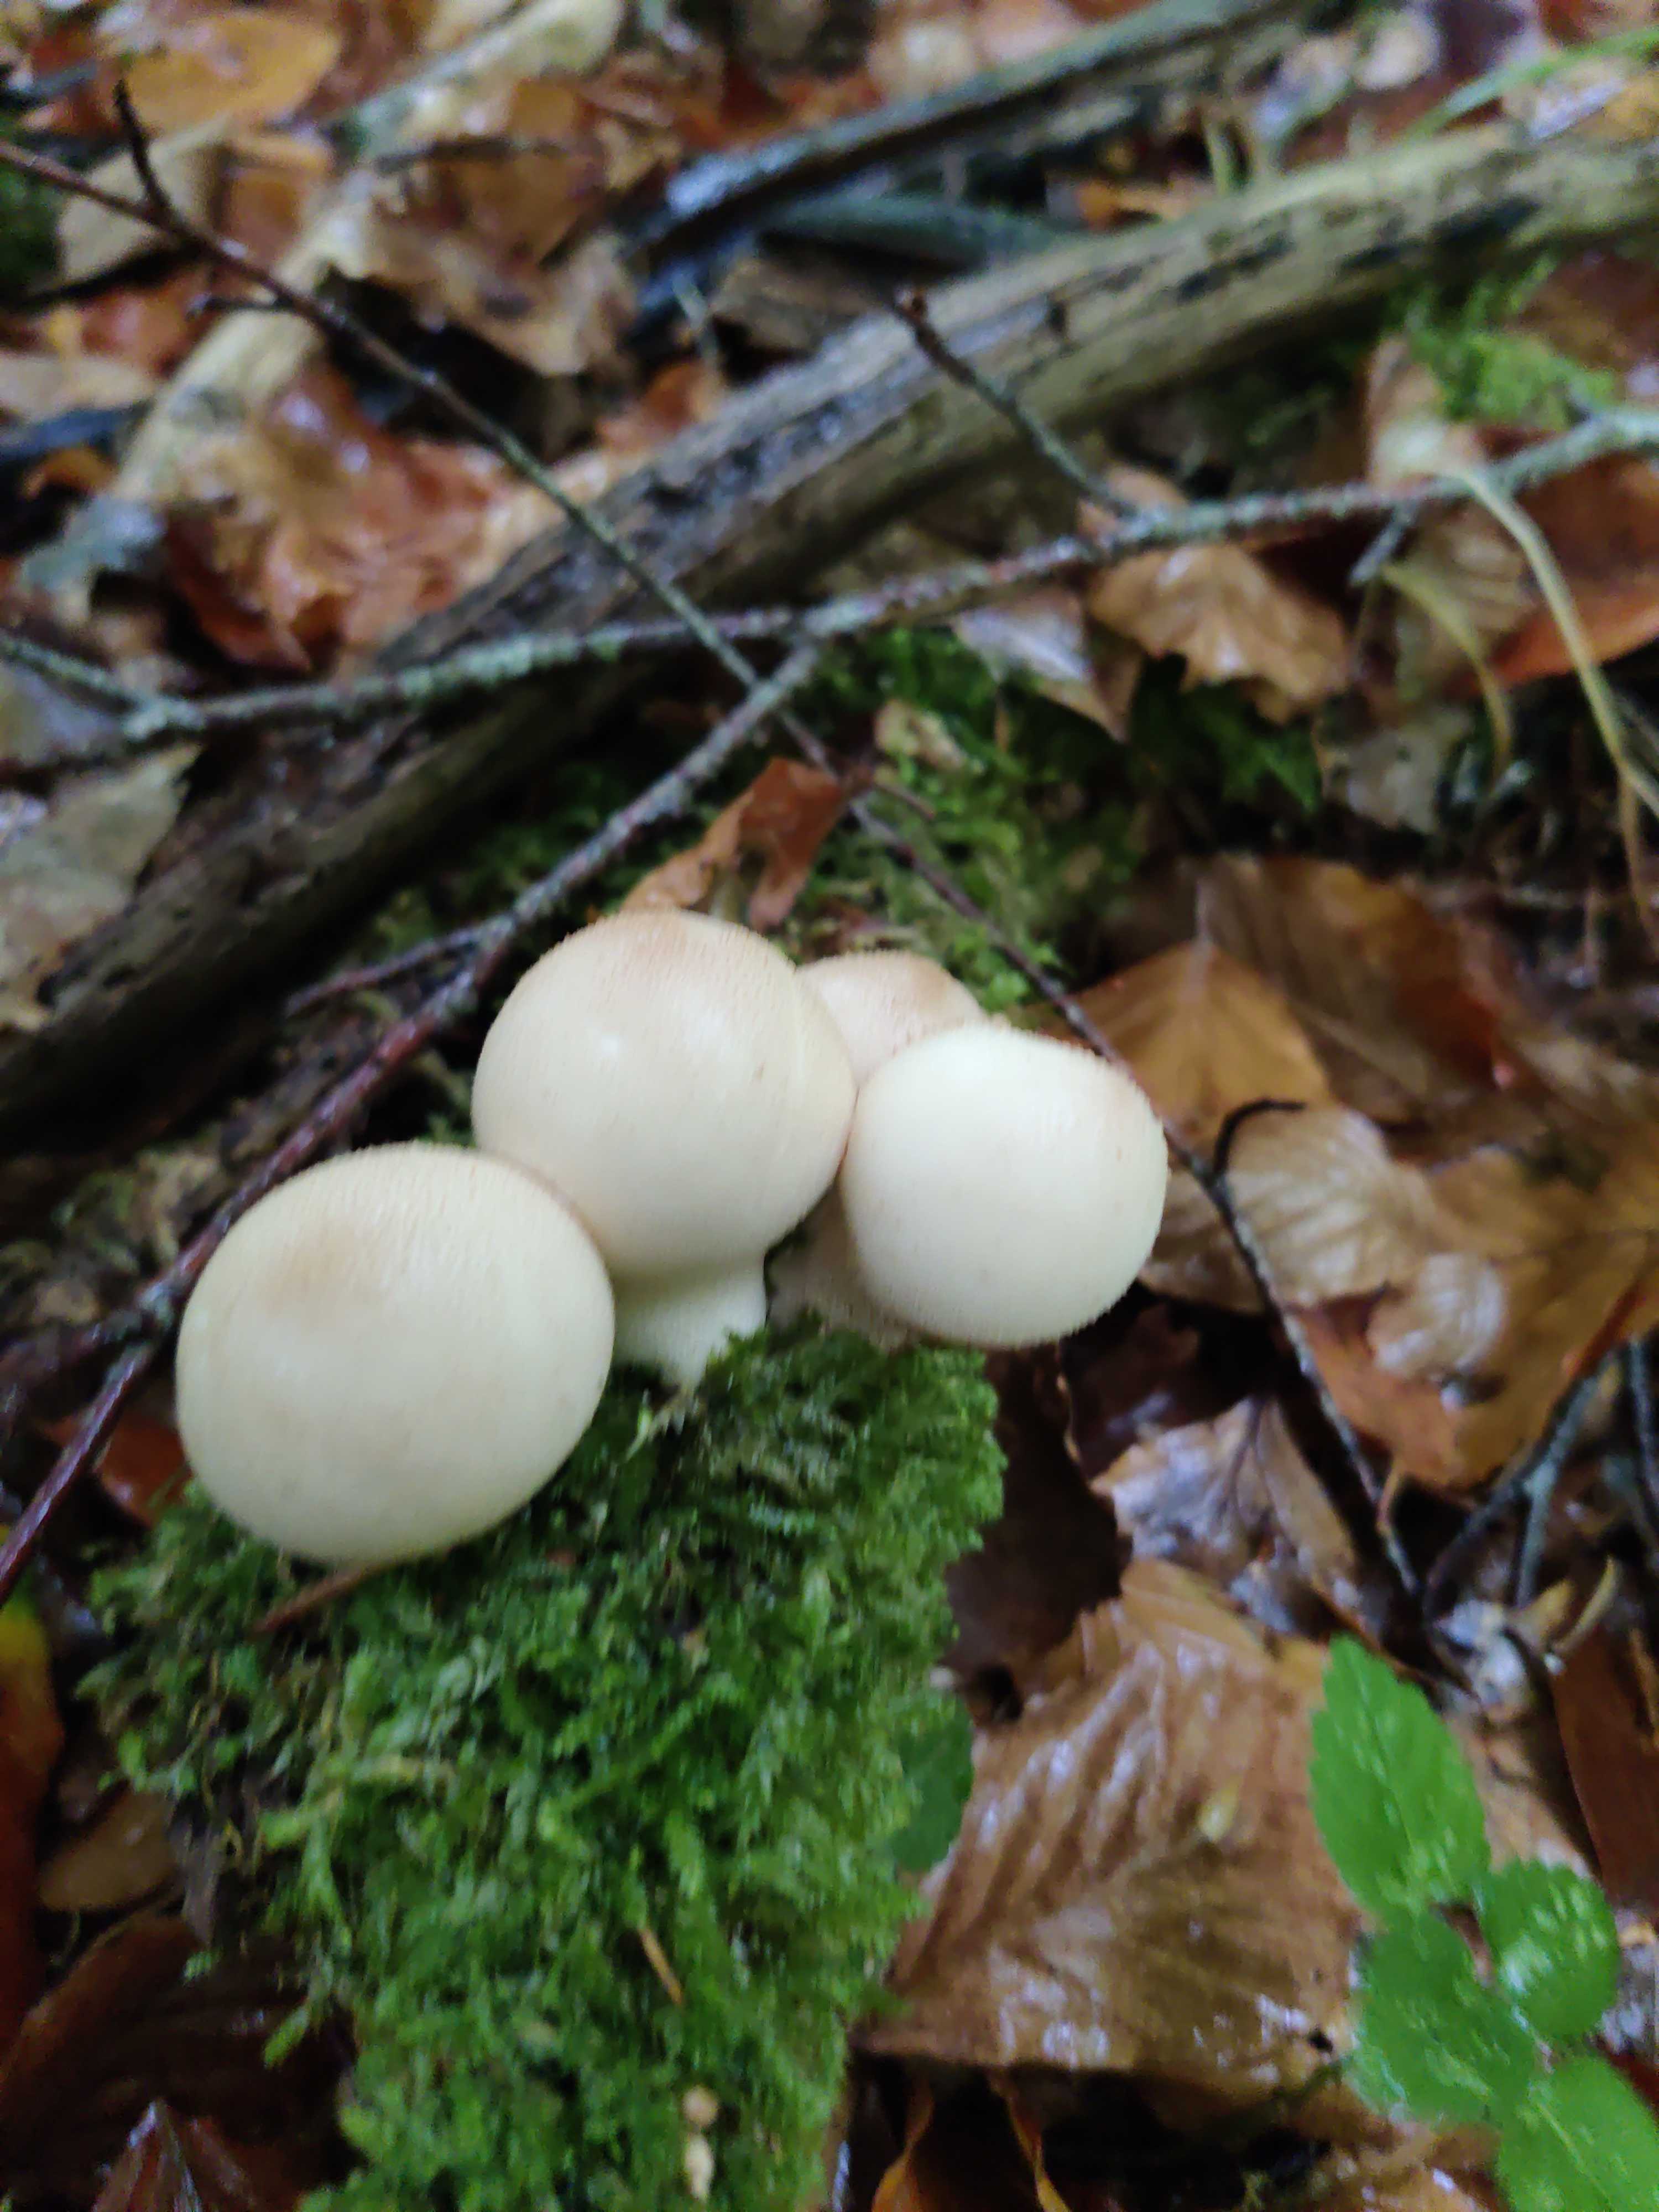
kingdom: Fungi
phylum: Basidiomycota
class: Agaricomycetes
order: Agaricales
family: Lycoperdaceae
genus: Apioperdon
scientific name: Apioperdon pyriforme
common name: pære-støvbold
